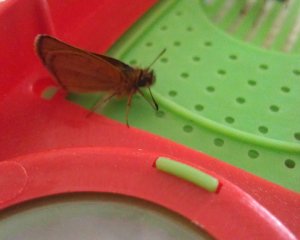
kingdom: Animalia
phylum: Arthropoda
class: Insecta
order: Lepidoptera
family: Hesperiidae
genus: Thymelicus
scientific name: Thymelicus lineola
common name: European Skipper
